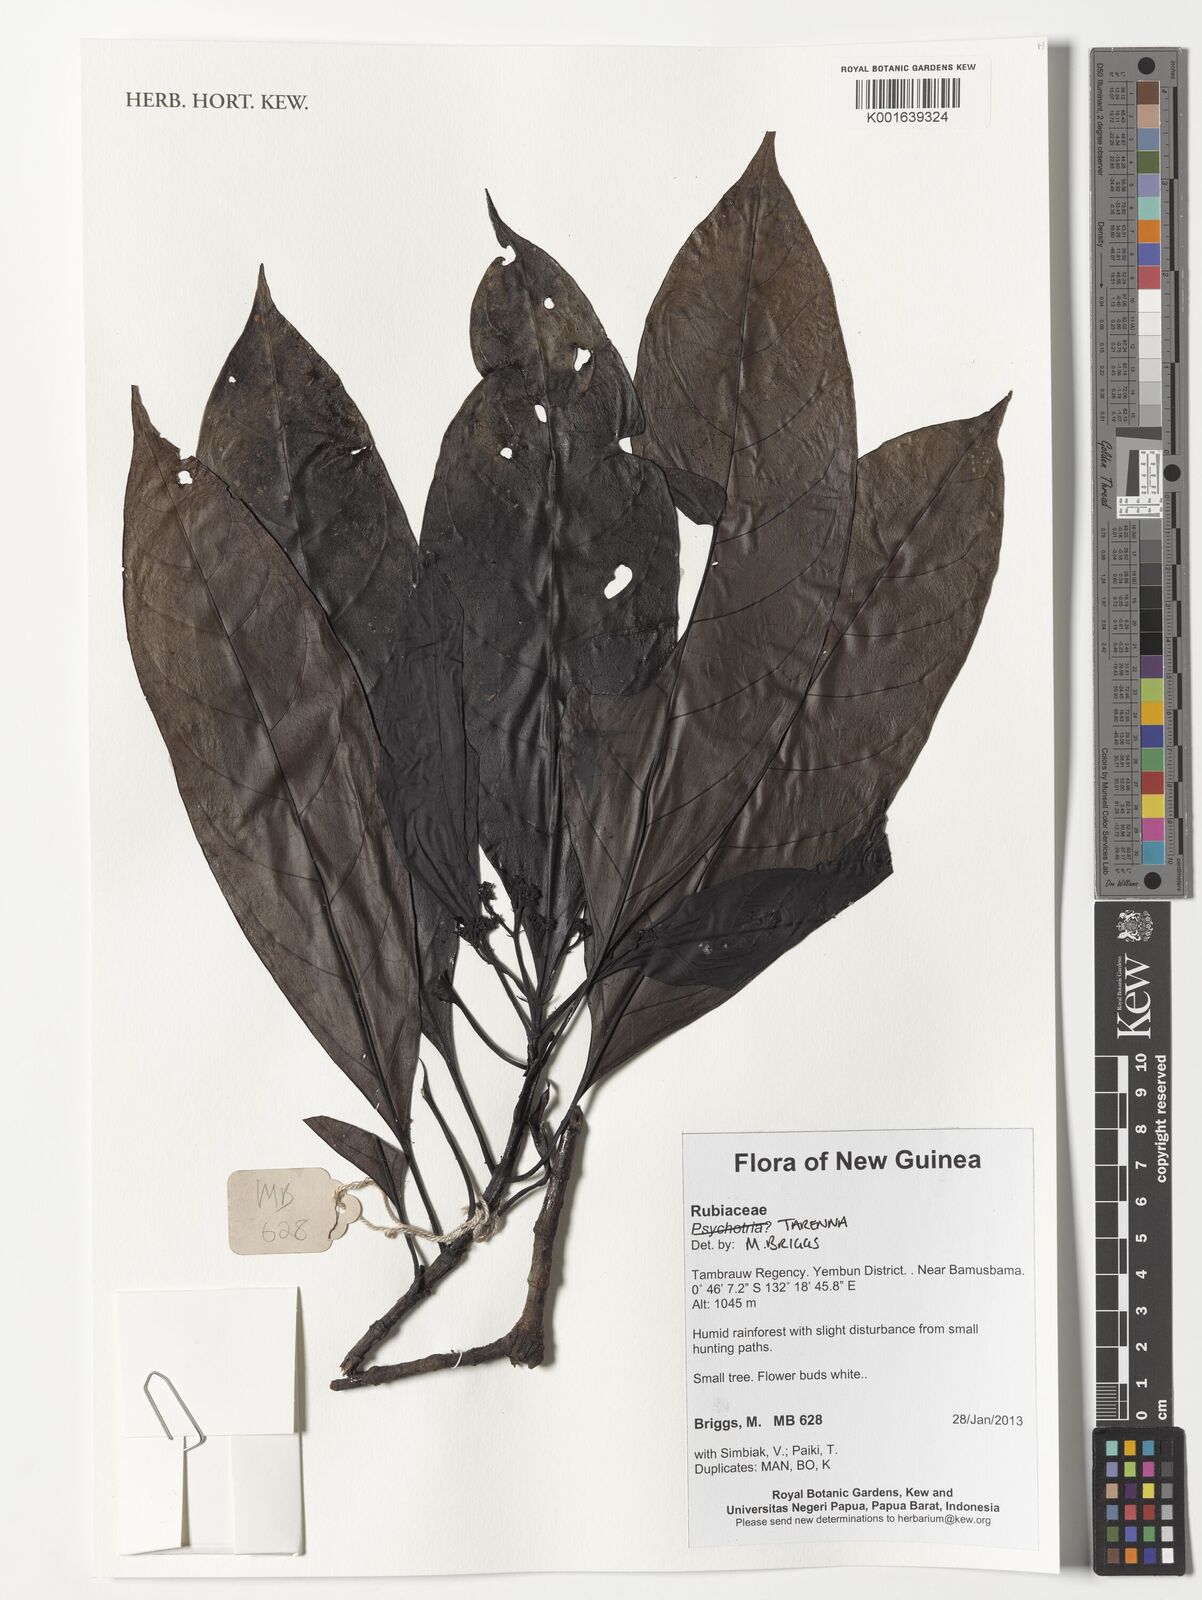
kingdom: Plantae
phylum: Tracheophyta
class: Magnoliopsida
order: Gentianales
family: Rubiaceae
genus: Tarenna
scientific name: Tarenna
